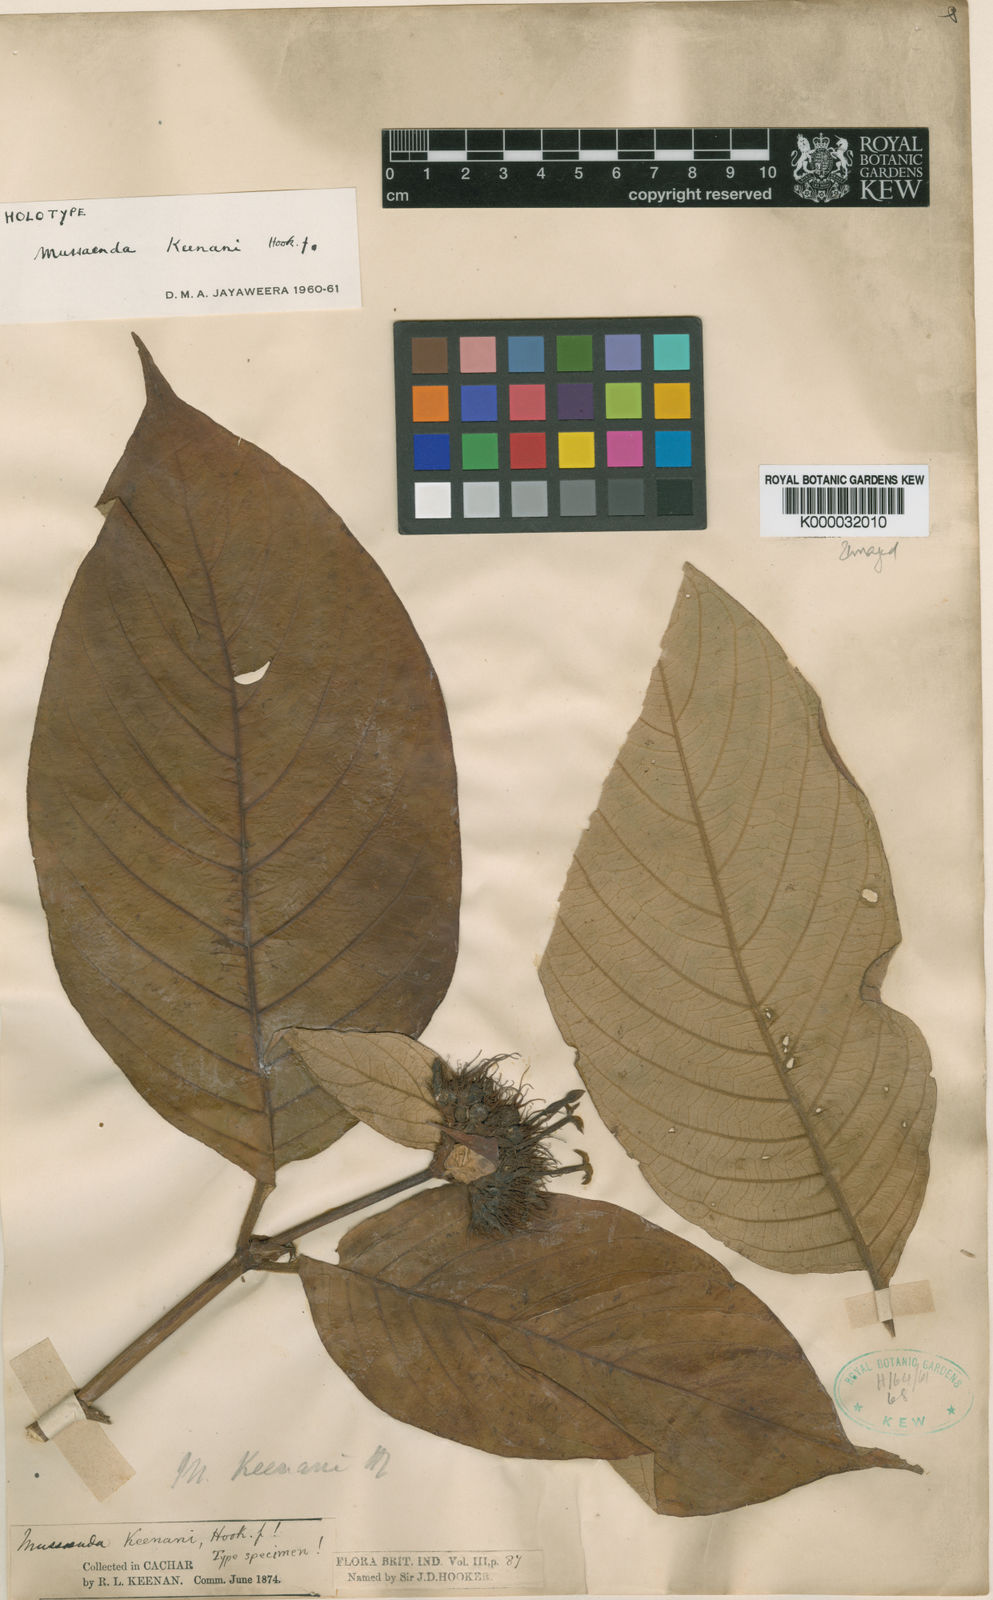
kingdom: Plantae
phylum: Tracheophyta
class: Magnoliopsida
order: Gentianales
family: Rubiaceae
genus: Mussaenda
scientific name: Mussaenda keenanii
